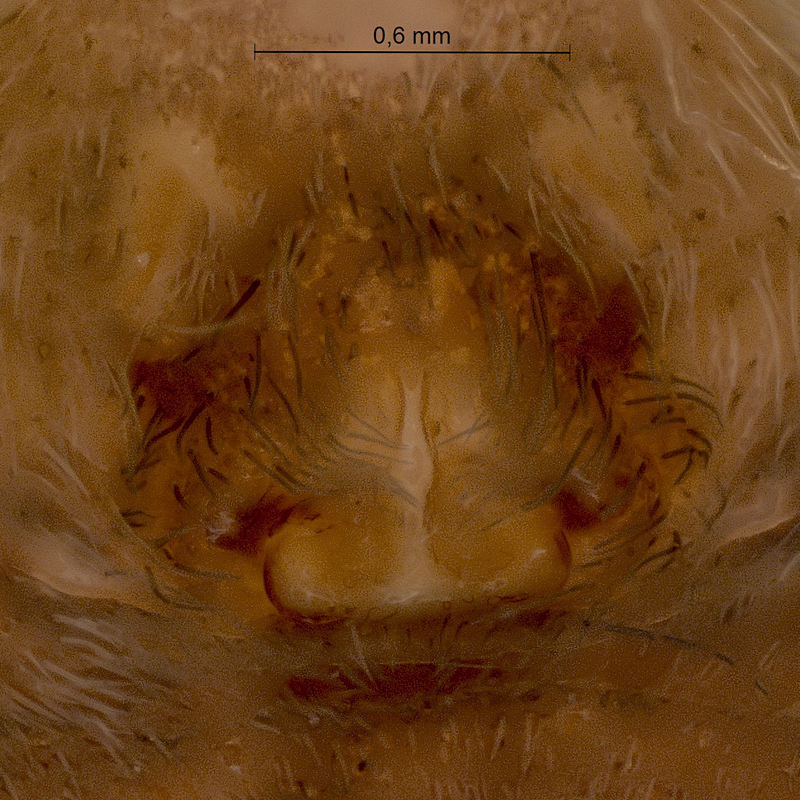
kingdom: Animalia
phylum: Arthropoda
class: Arachnida
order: Araneae
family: Lycosidae
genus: Pardosa
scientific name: Pardosa lugubris
